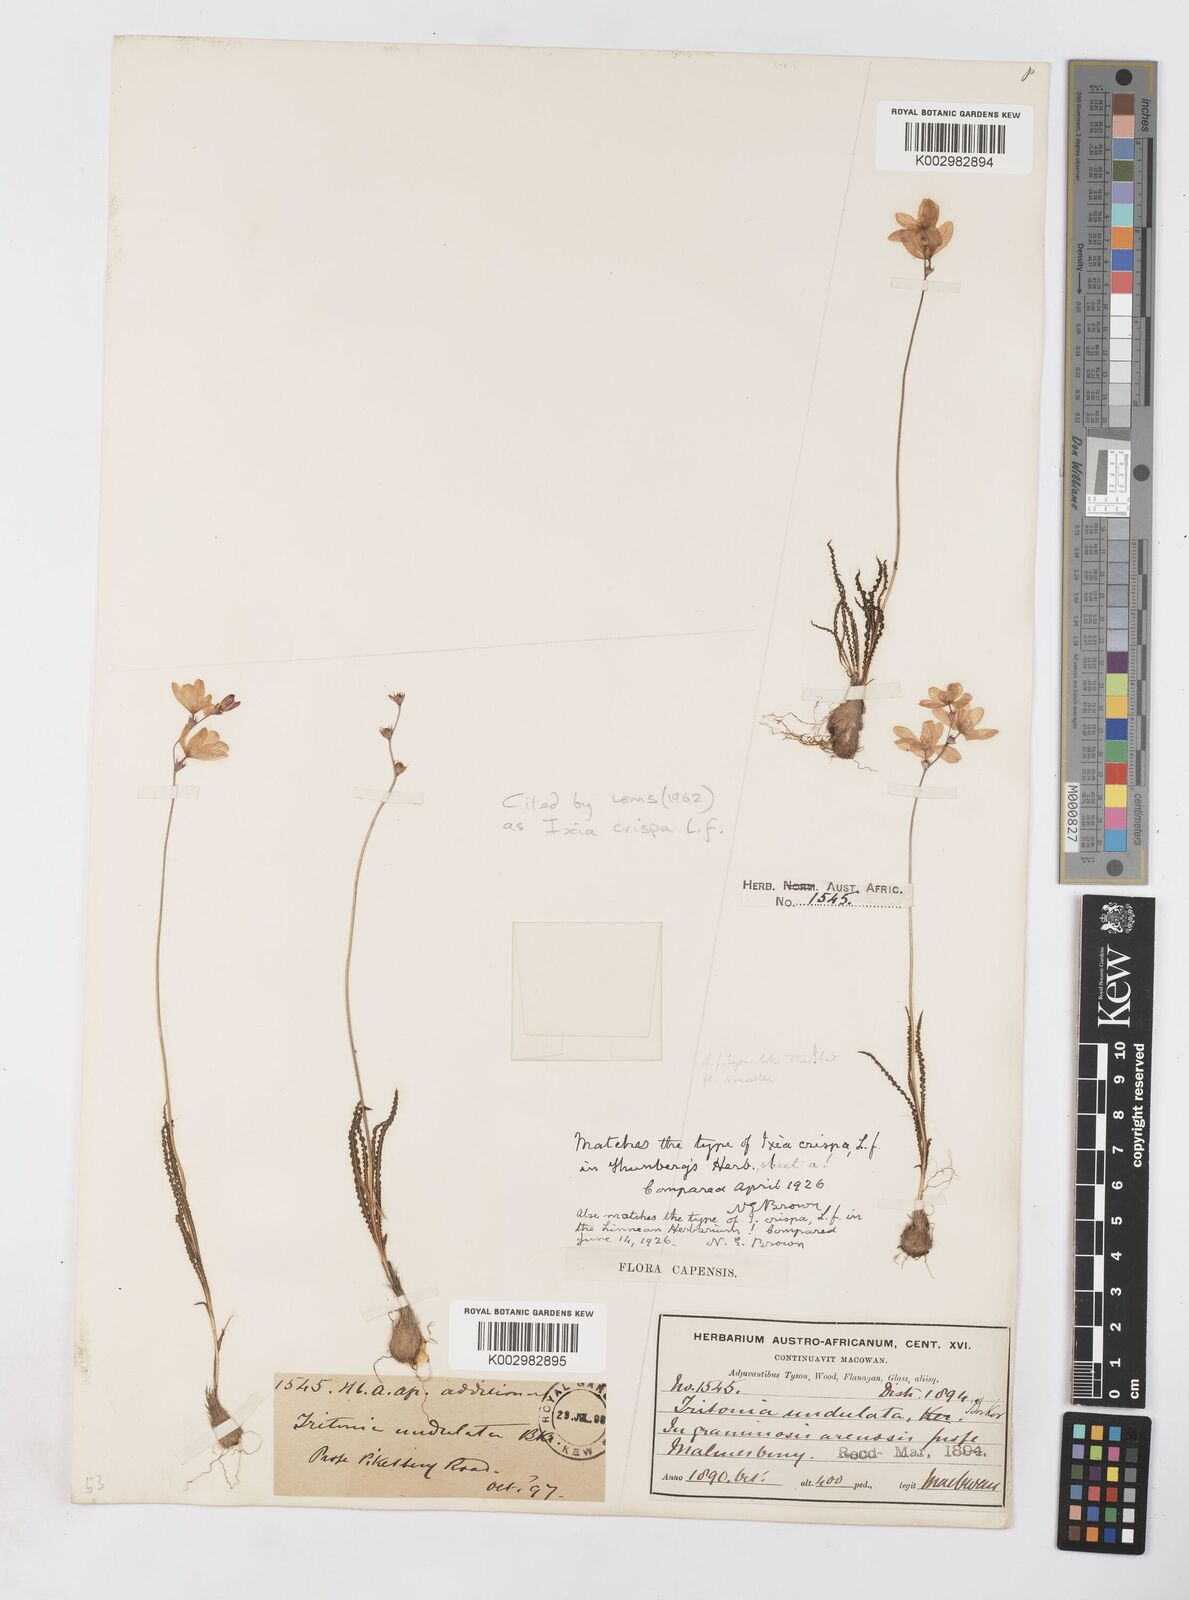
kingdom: Plantae
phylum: Tracheophyta
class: Liliopsida
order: Asparagales
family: Iridaceae
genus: Ixia
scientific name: Ixia erubescens
